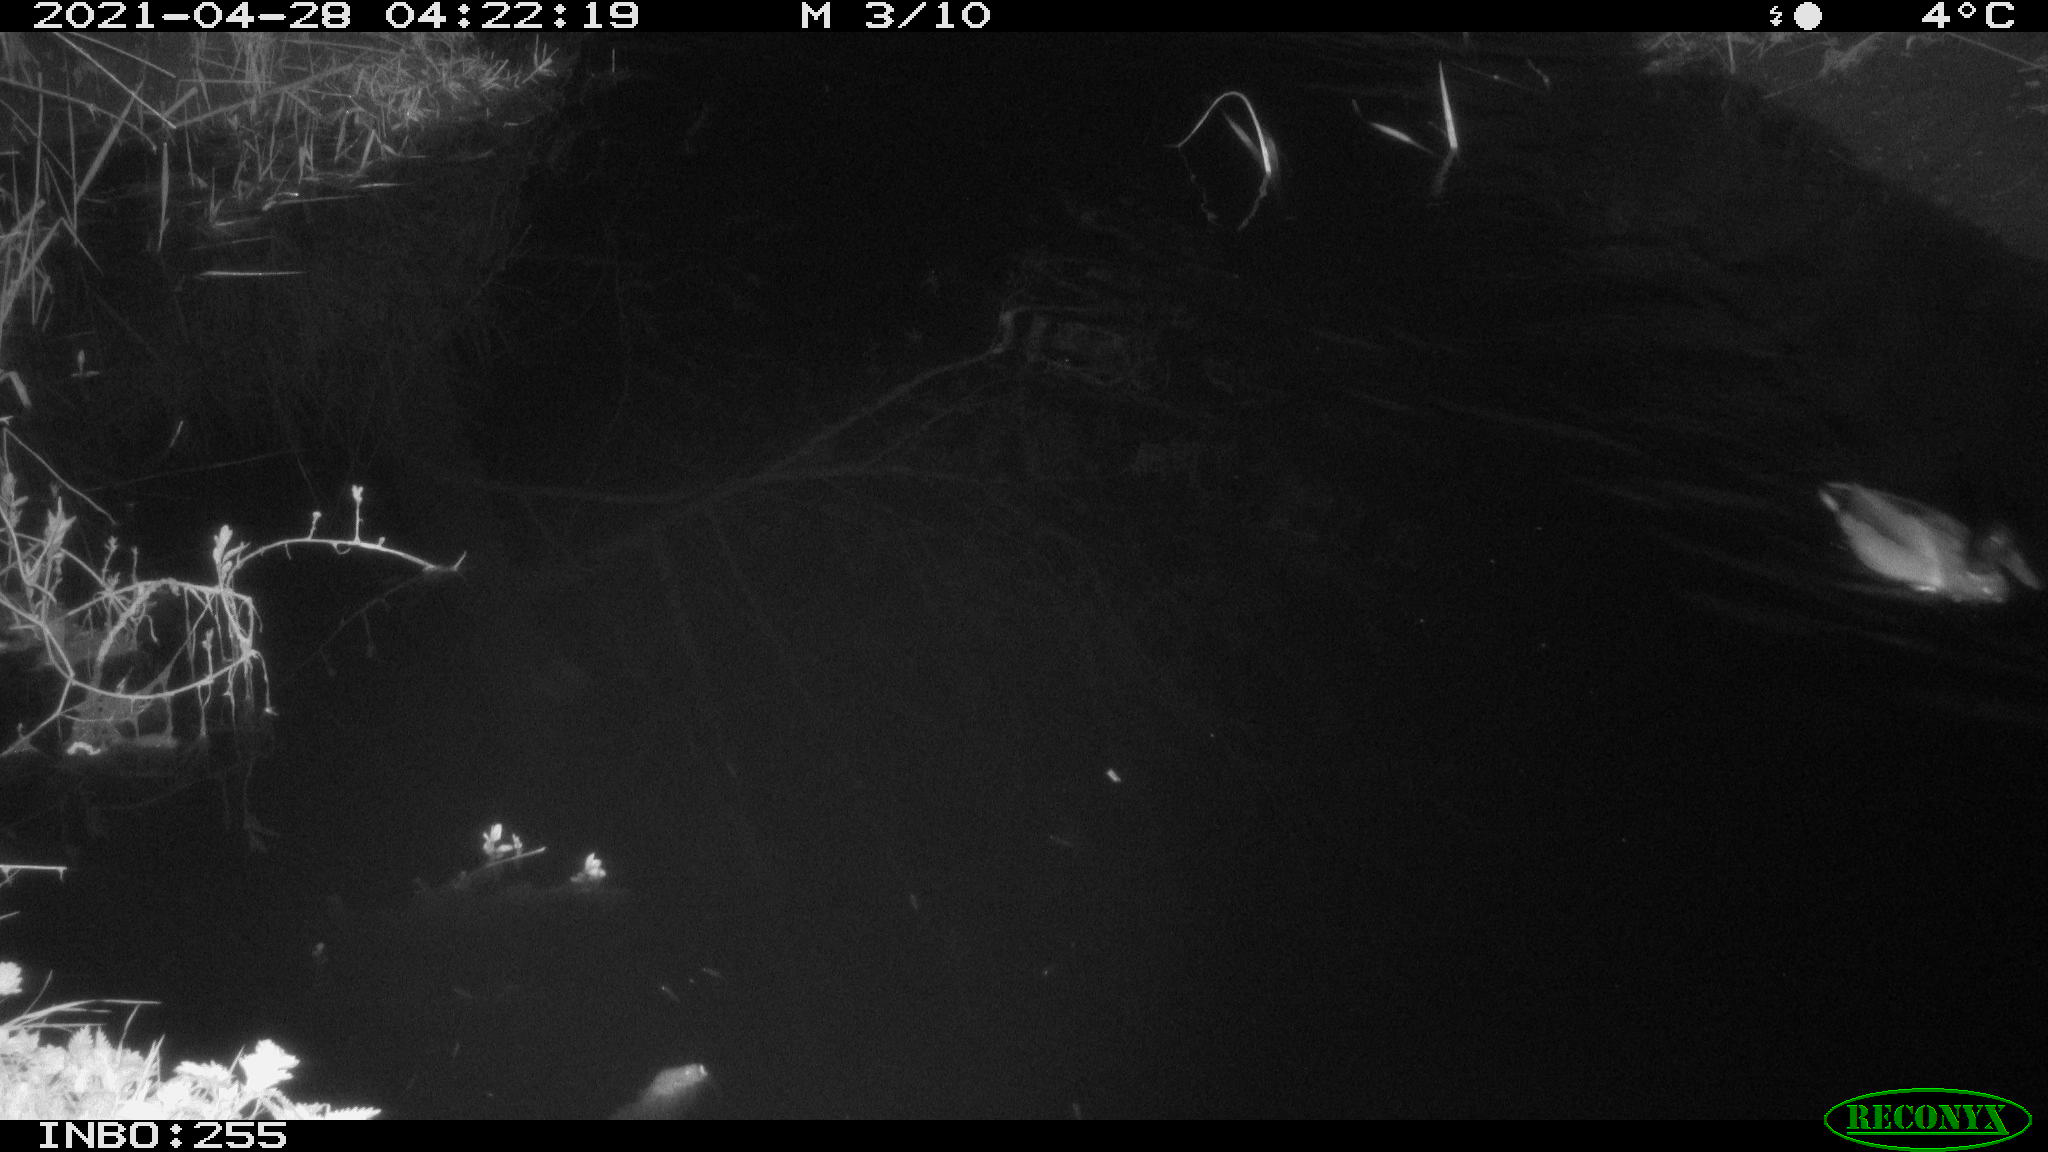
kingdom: Animalia
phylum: Chordata
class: Aves
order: Anseriformes
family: Anatidae
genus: Anas
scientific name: Anas platyrhynchos
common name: Mallard
